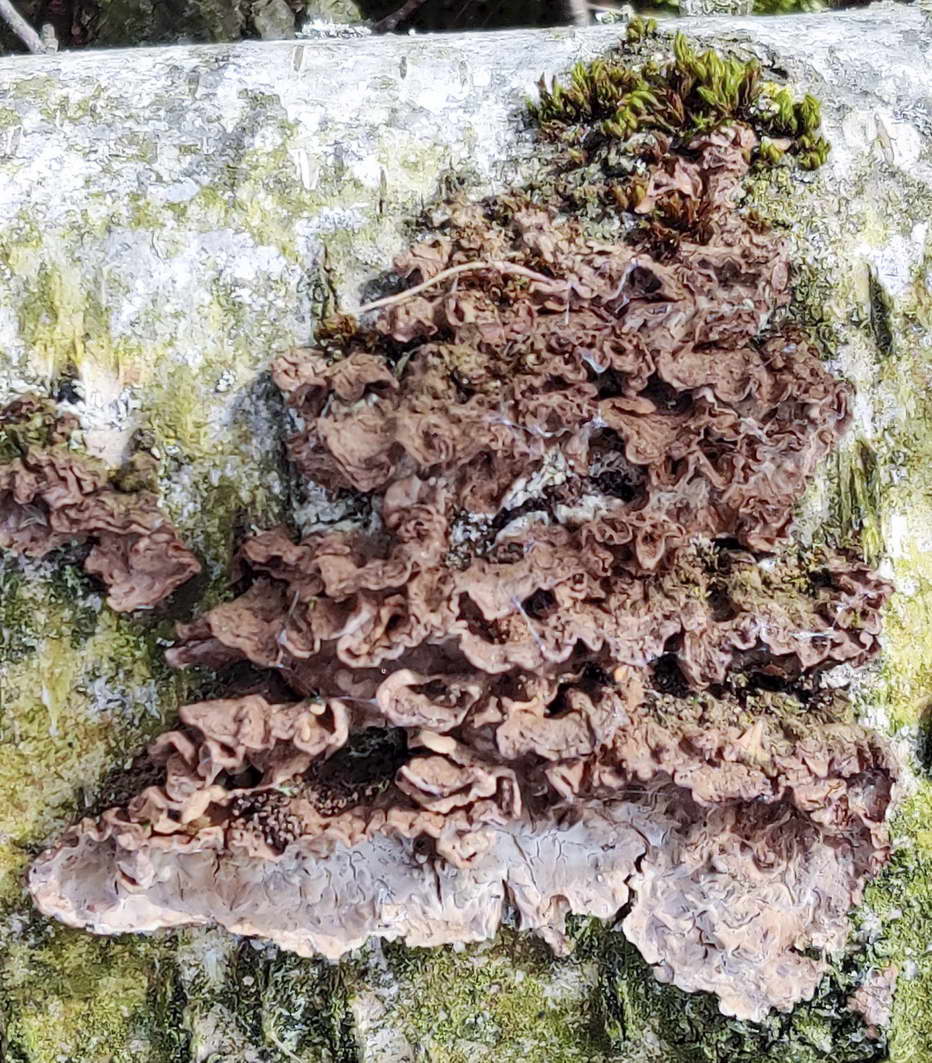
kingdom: Fungi
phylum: Basidiomycota
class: Agaricomycetes
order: Russulales
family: Hericiaceae
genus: Laxitextum
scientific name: Laxitextum bicolor
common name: tvefarvet filtskind
